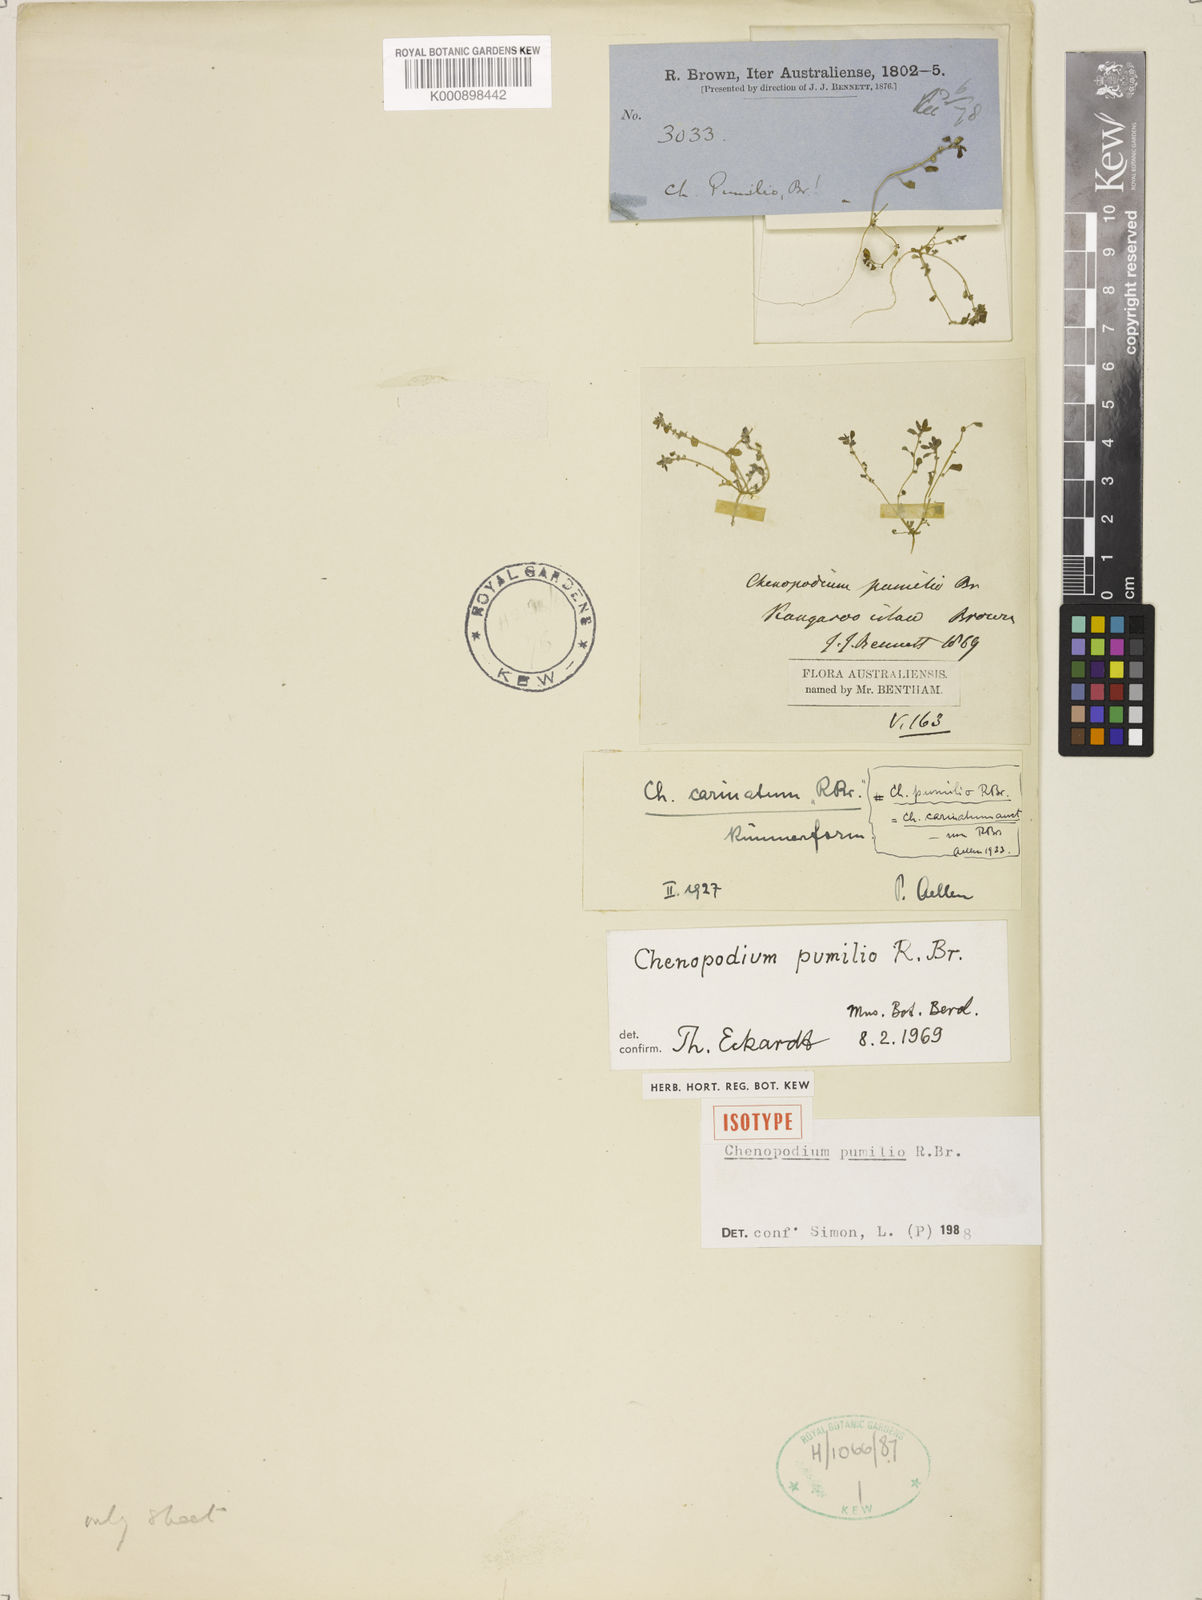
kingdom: Plantae
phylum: Tracheophyta
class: Magnoliopsida
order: Caryophyllales
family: Amaranthaceae
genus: Dysphania
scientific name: Dysphania pumilio
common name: Clammy goosefoot
